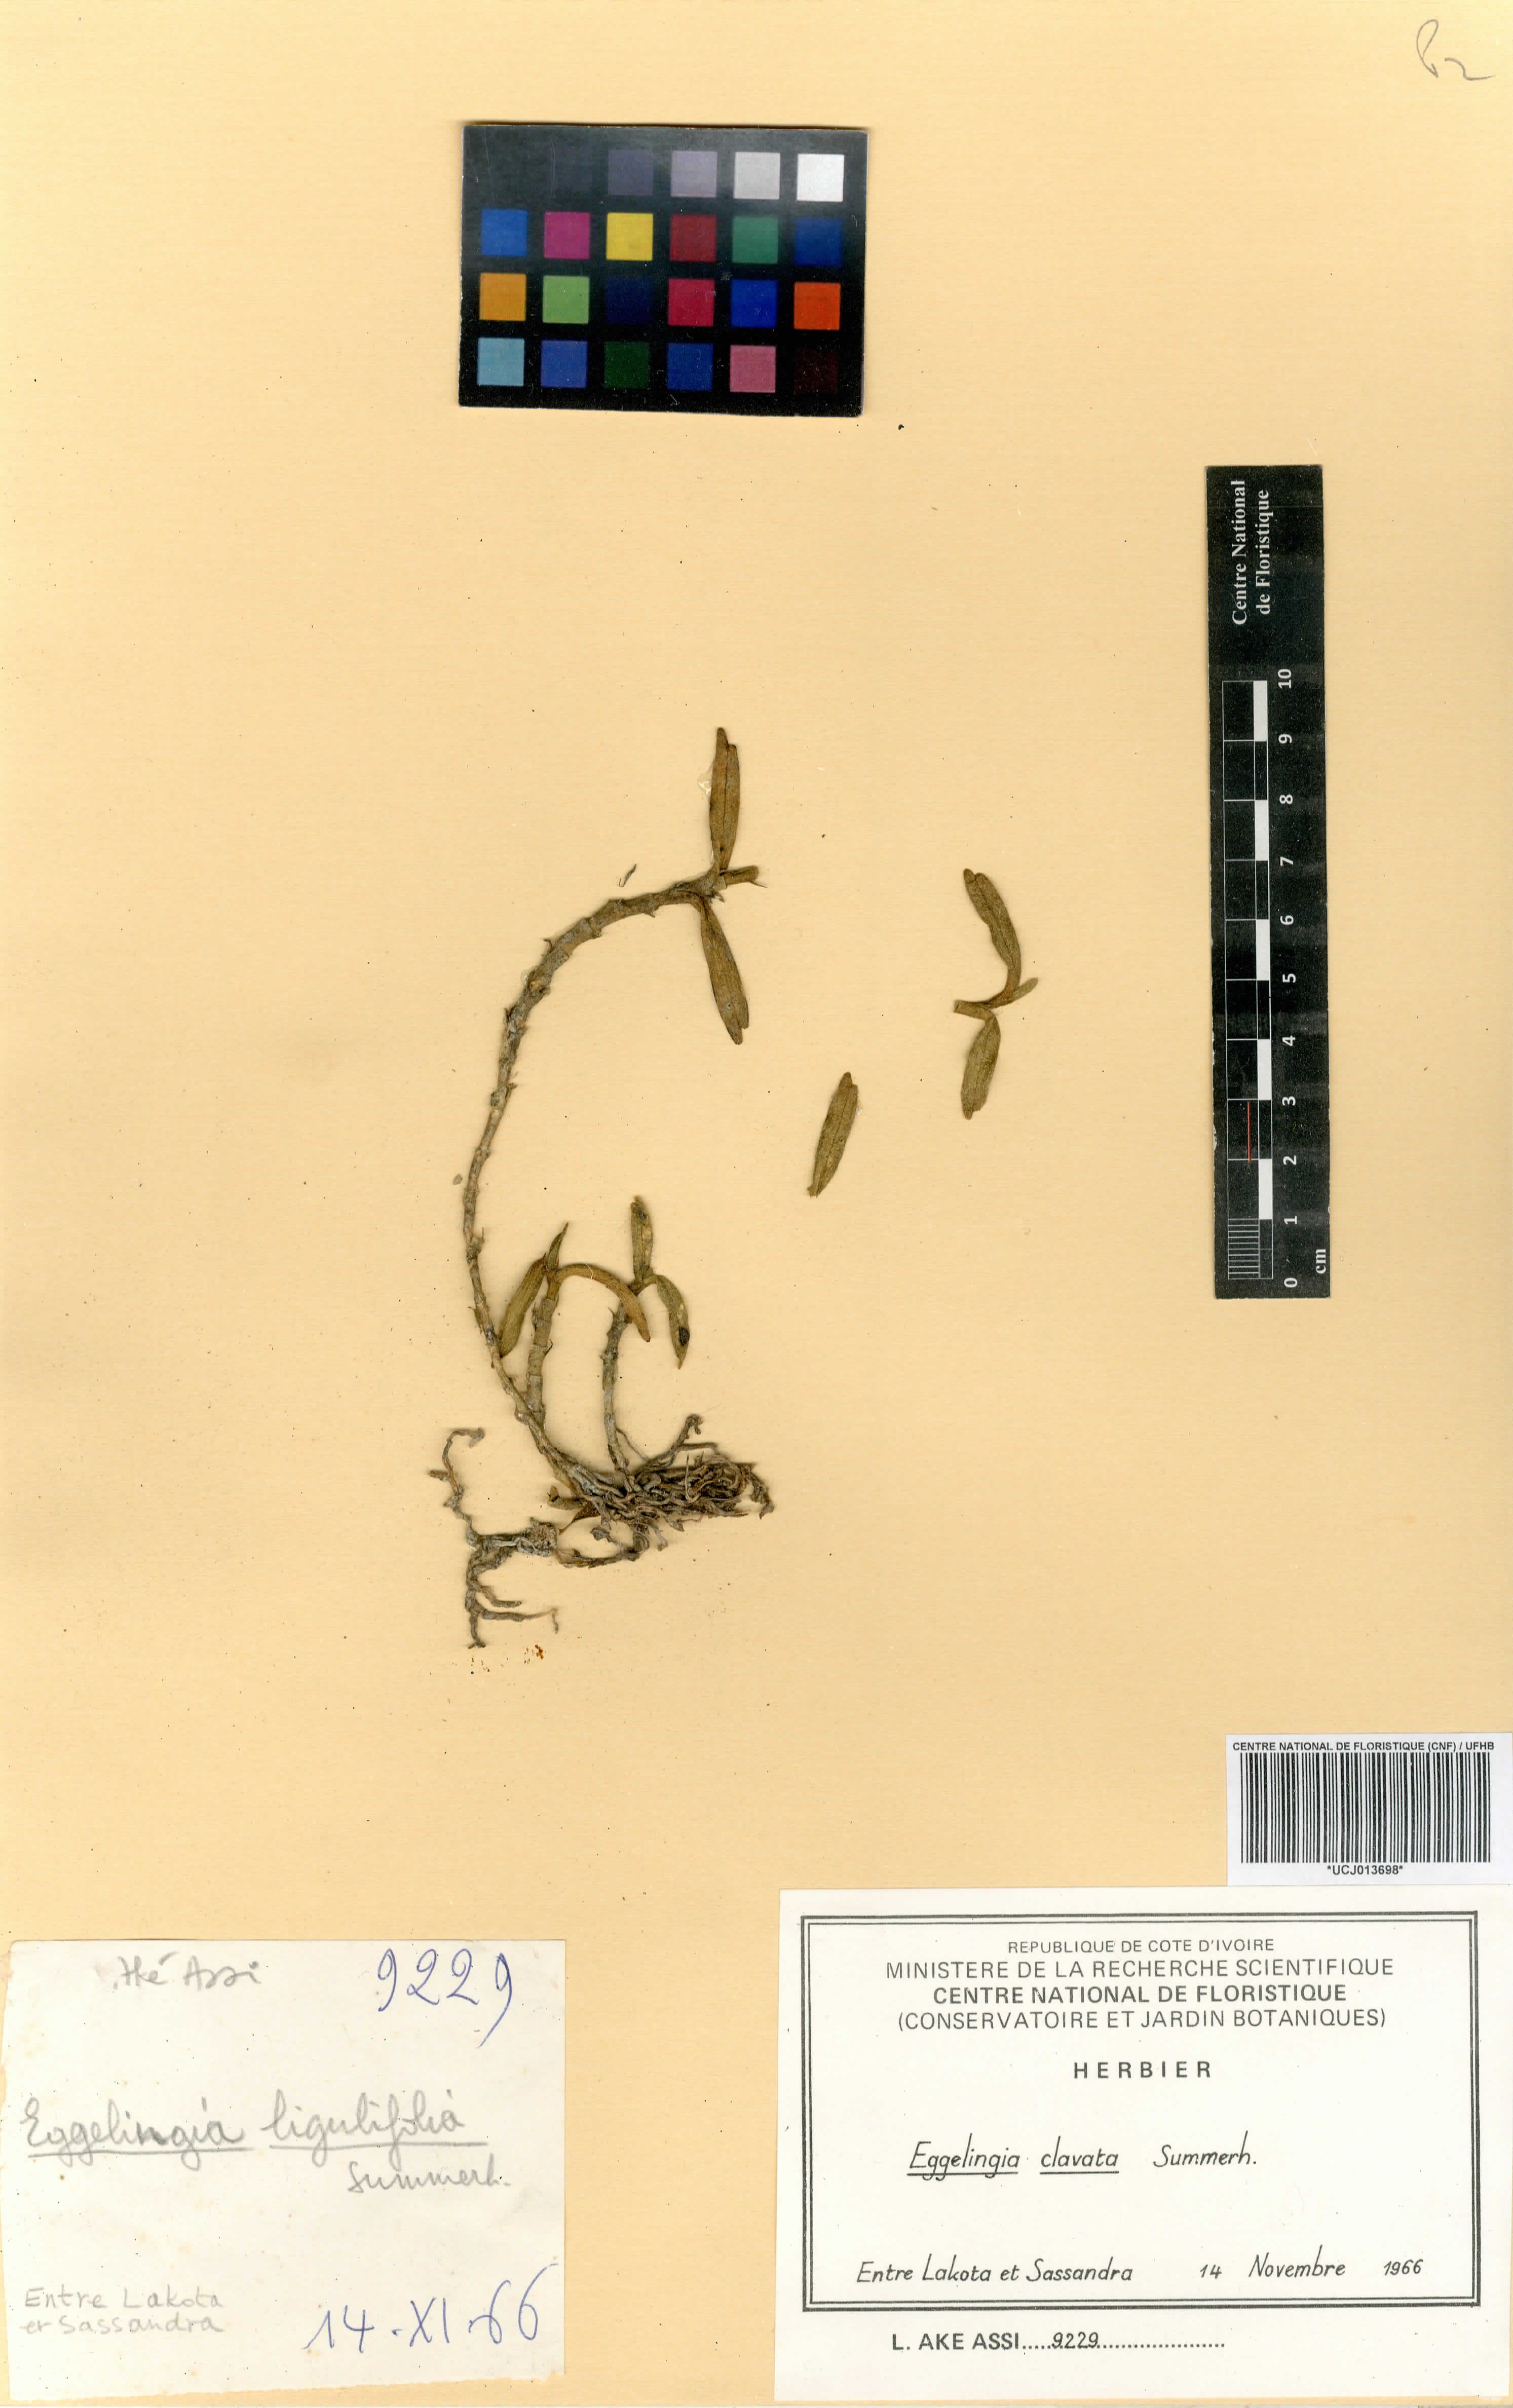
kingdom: Plantae
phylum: Tracheophyta
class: Liliopsida
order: Asparagales
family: Orchidaceae
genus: Eggelingia
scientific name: Eggelingia clavata
